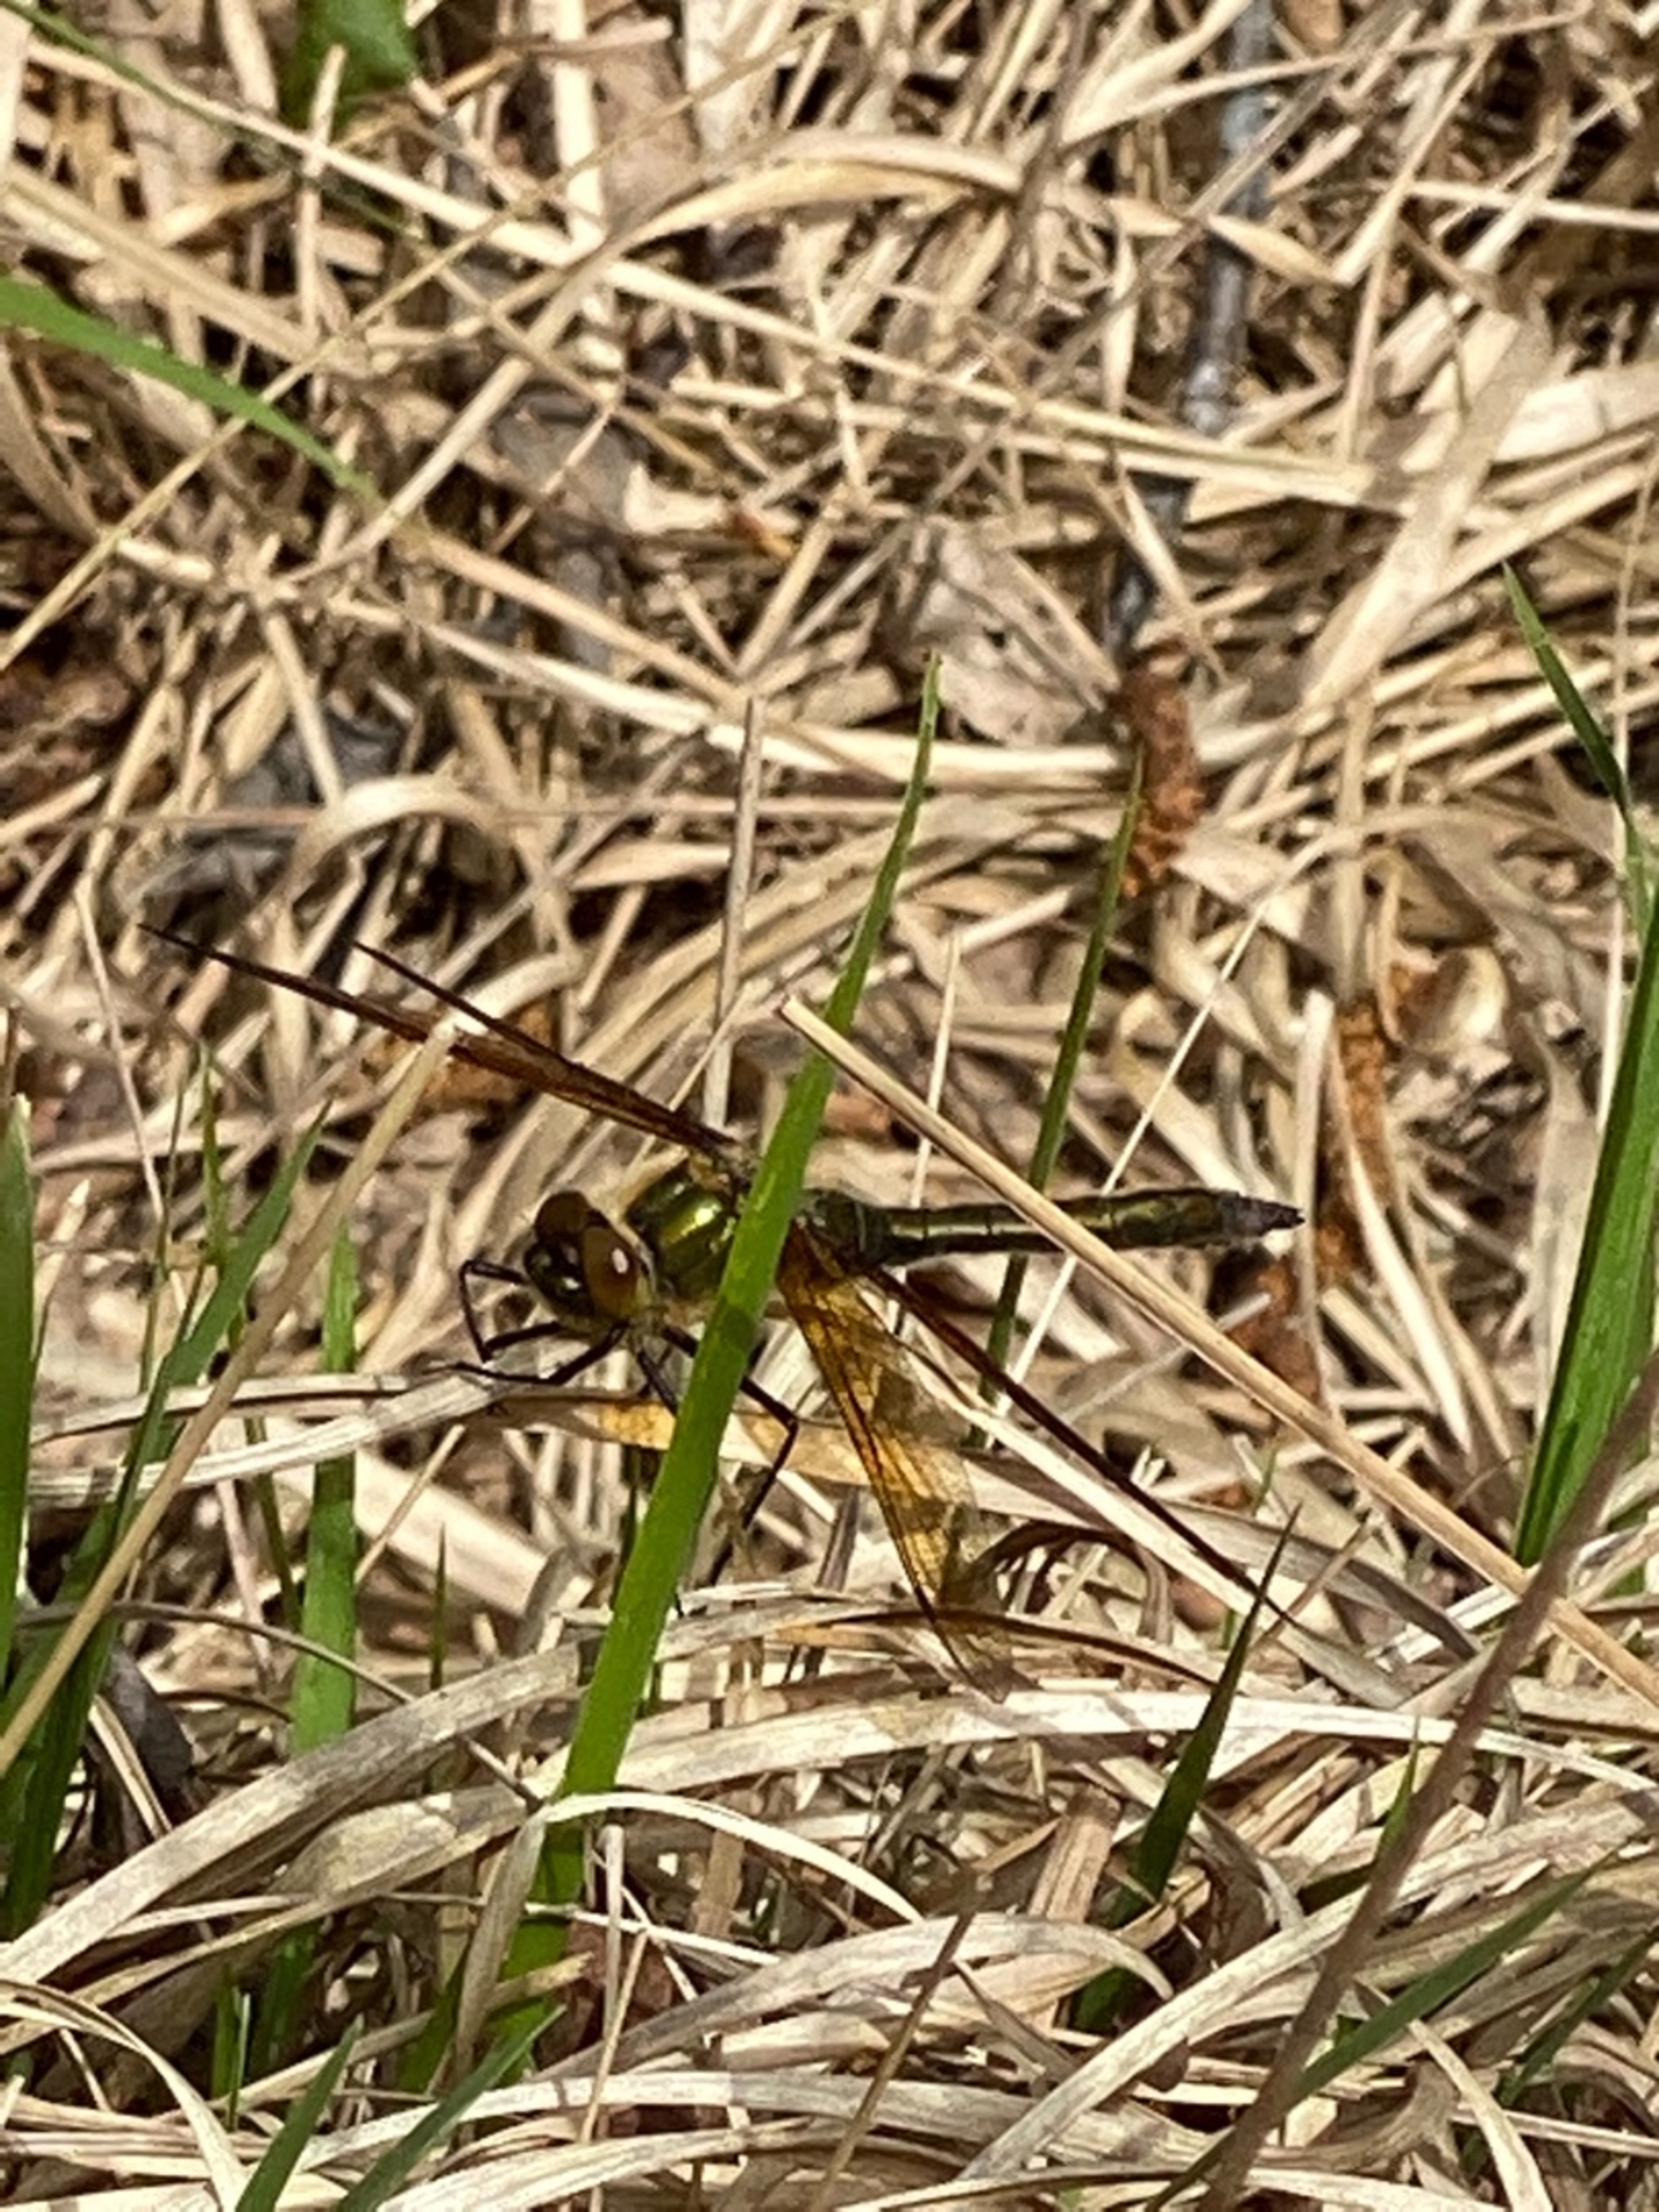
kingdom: Animalia
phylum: Arthropoda
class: Insecta
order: Odonata
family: Corduliidae
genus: Cordulia
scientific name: Cordulia aenea
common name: Grøn smaragdlibel
